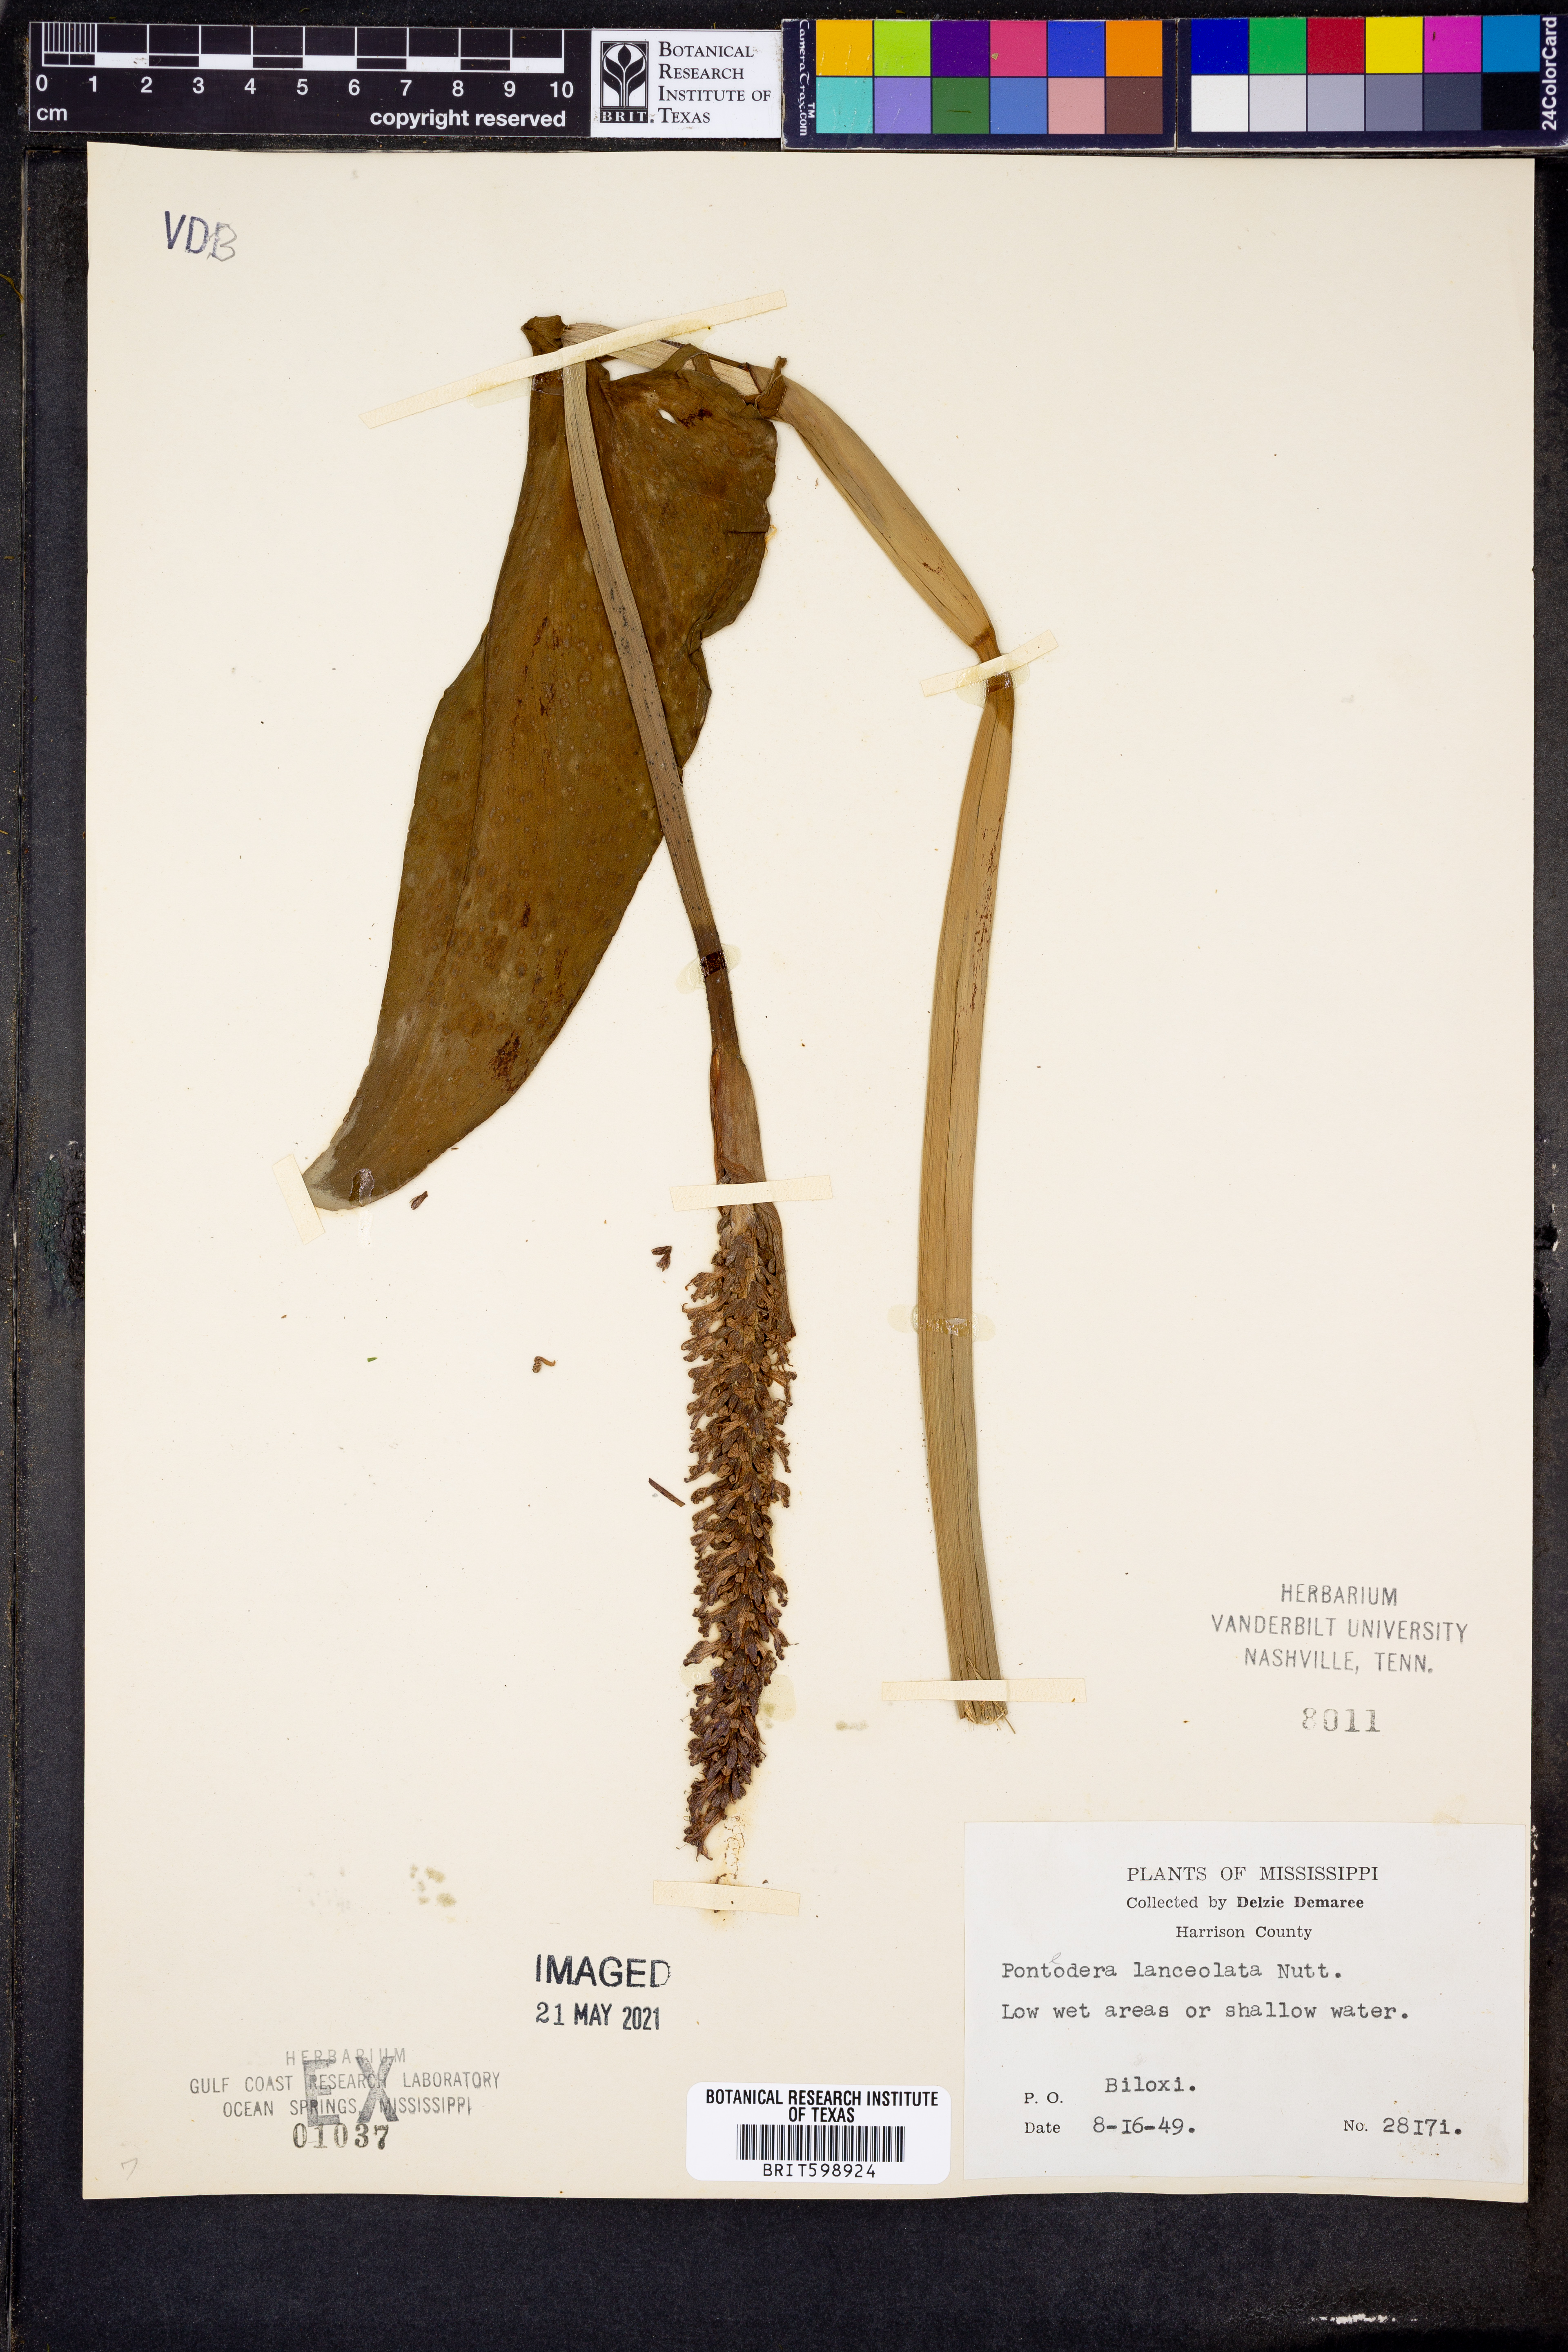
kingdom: Plantae
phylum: Tracheophyta
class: Liliopsida
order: Commelinales
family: Pontederiaceae
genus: Pontederia
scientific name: Pontederia cordata
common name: Pickerelweed
